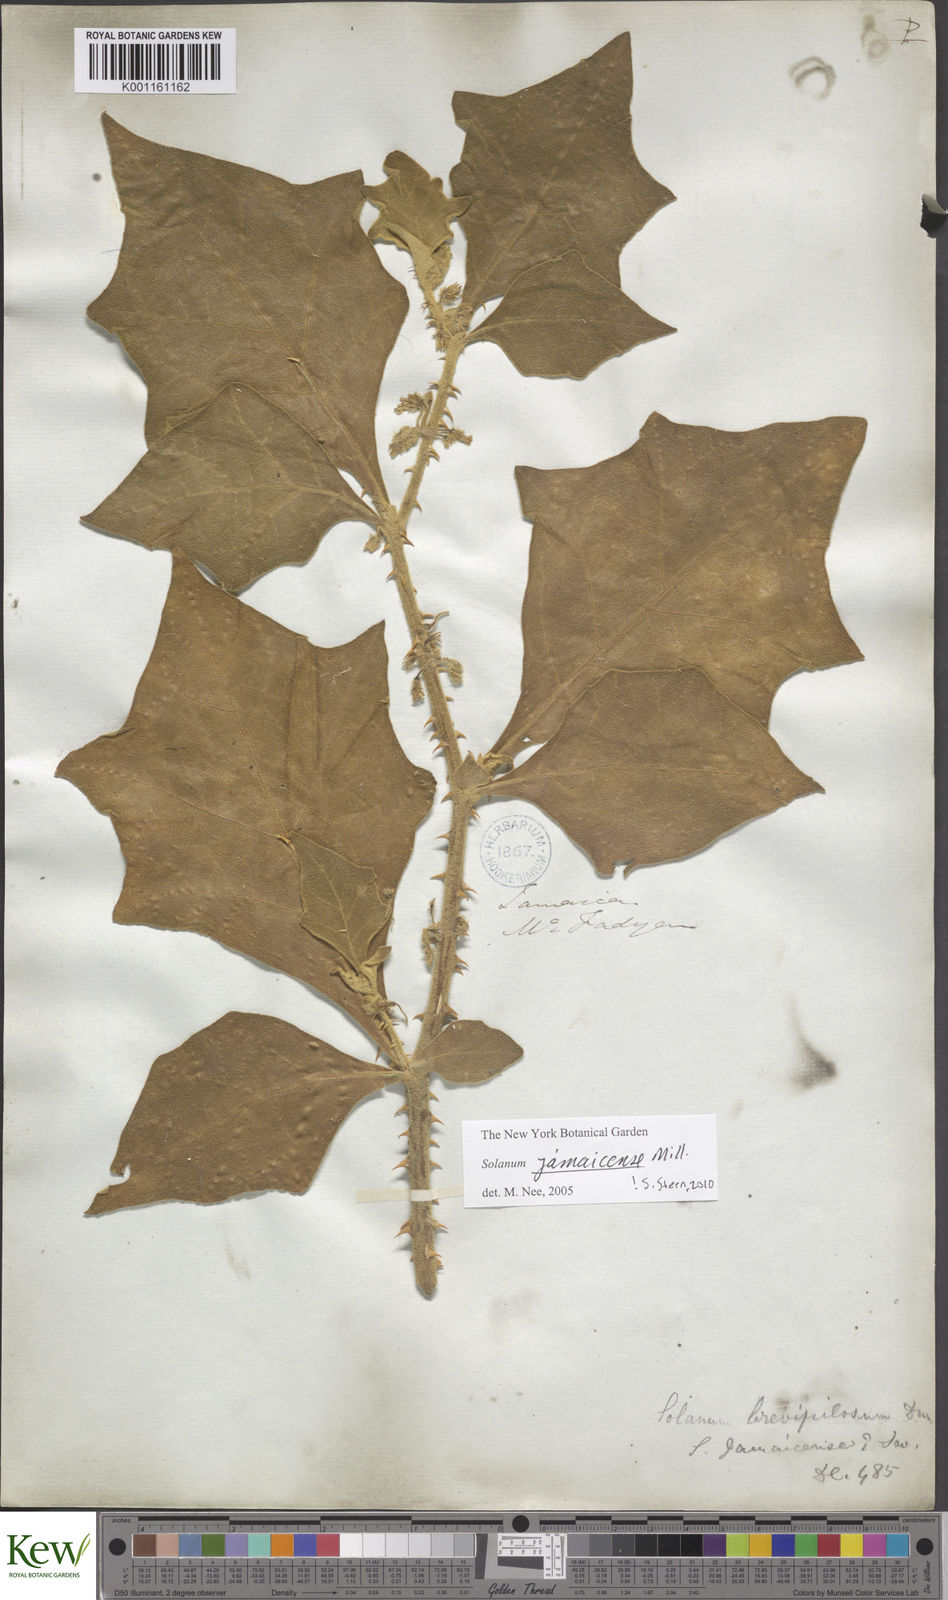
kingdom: Plantae
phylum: Tracheophyta
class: Magnoliopsida
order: Solanales
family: Solanaceae
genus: Solanum
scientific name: Solanum jamaicense
